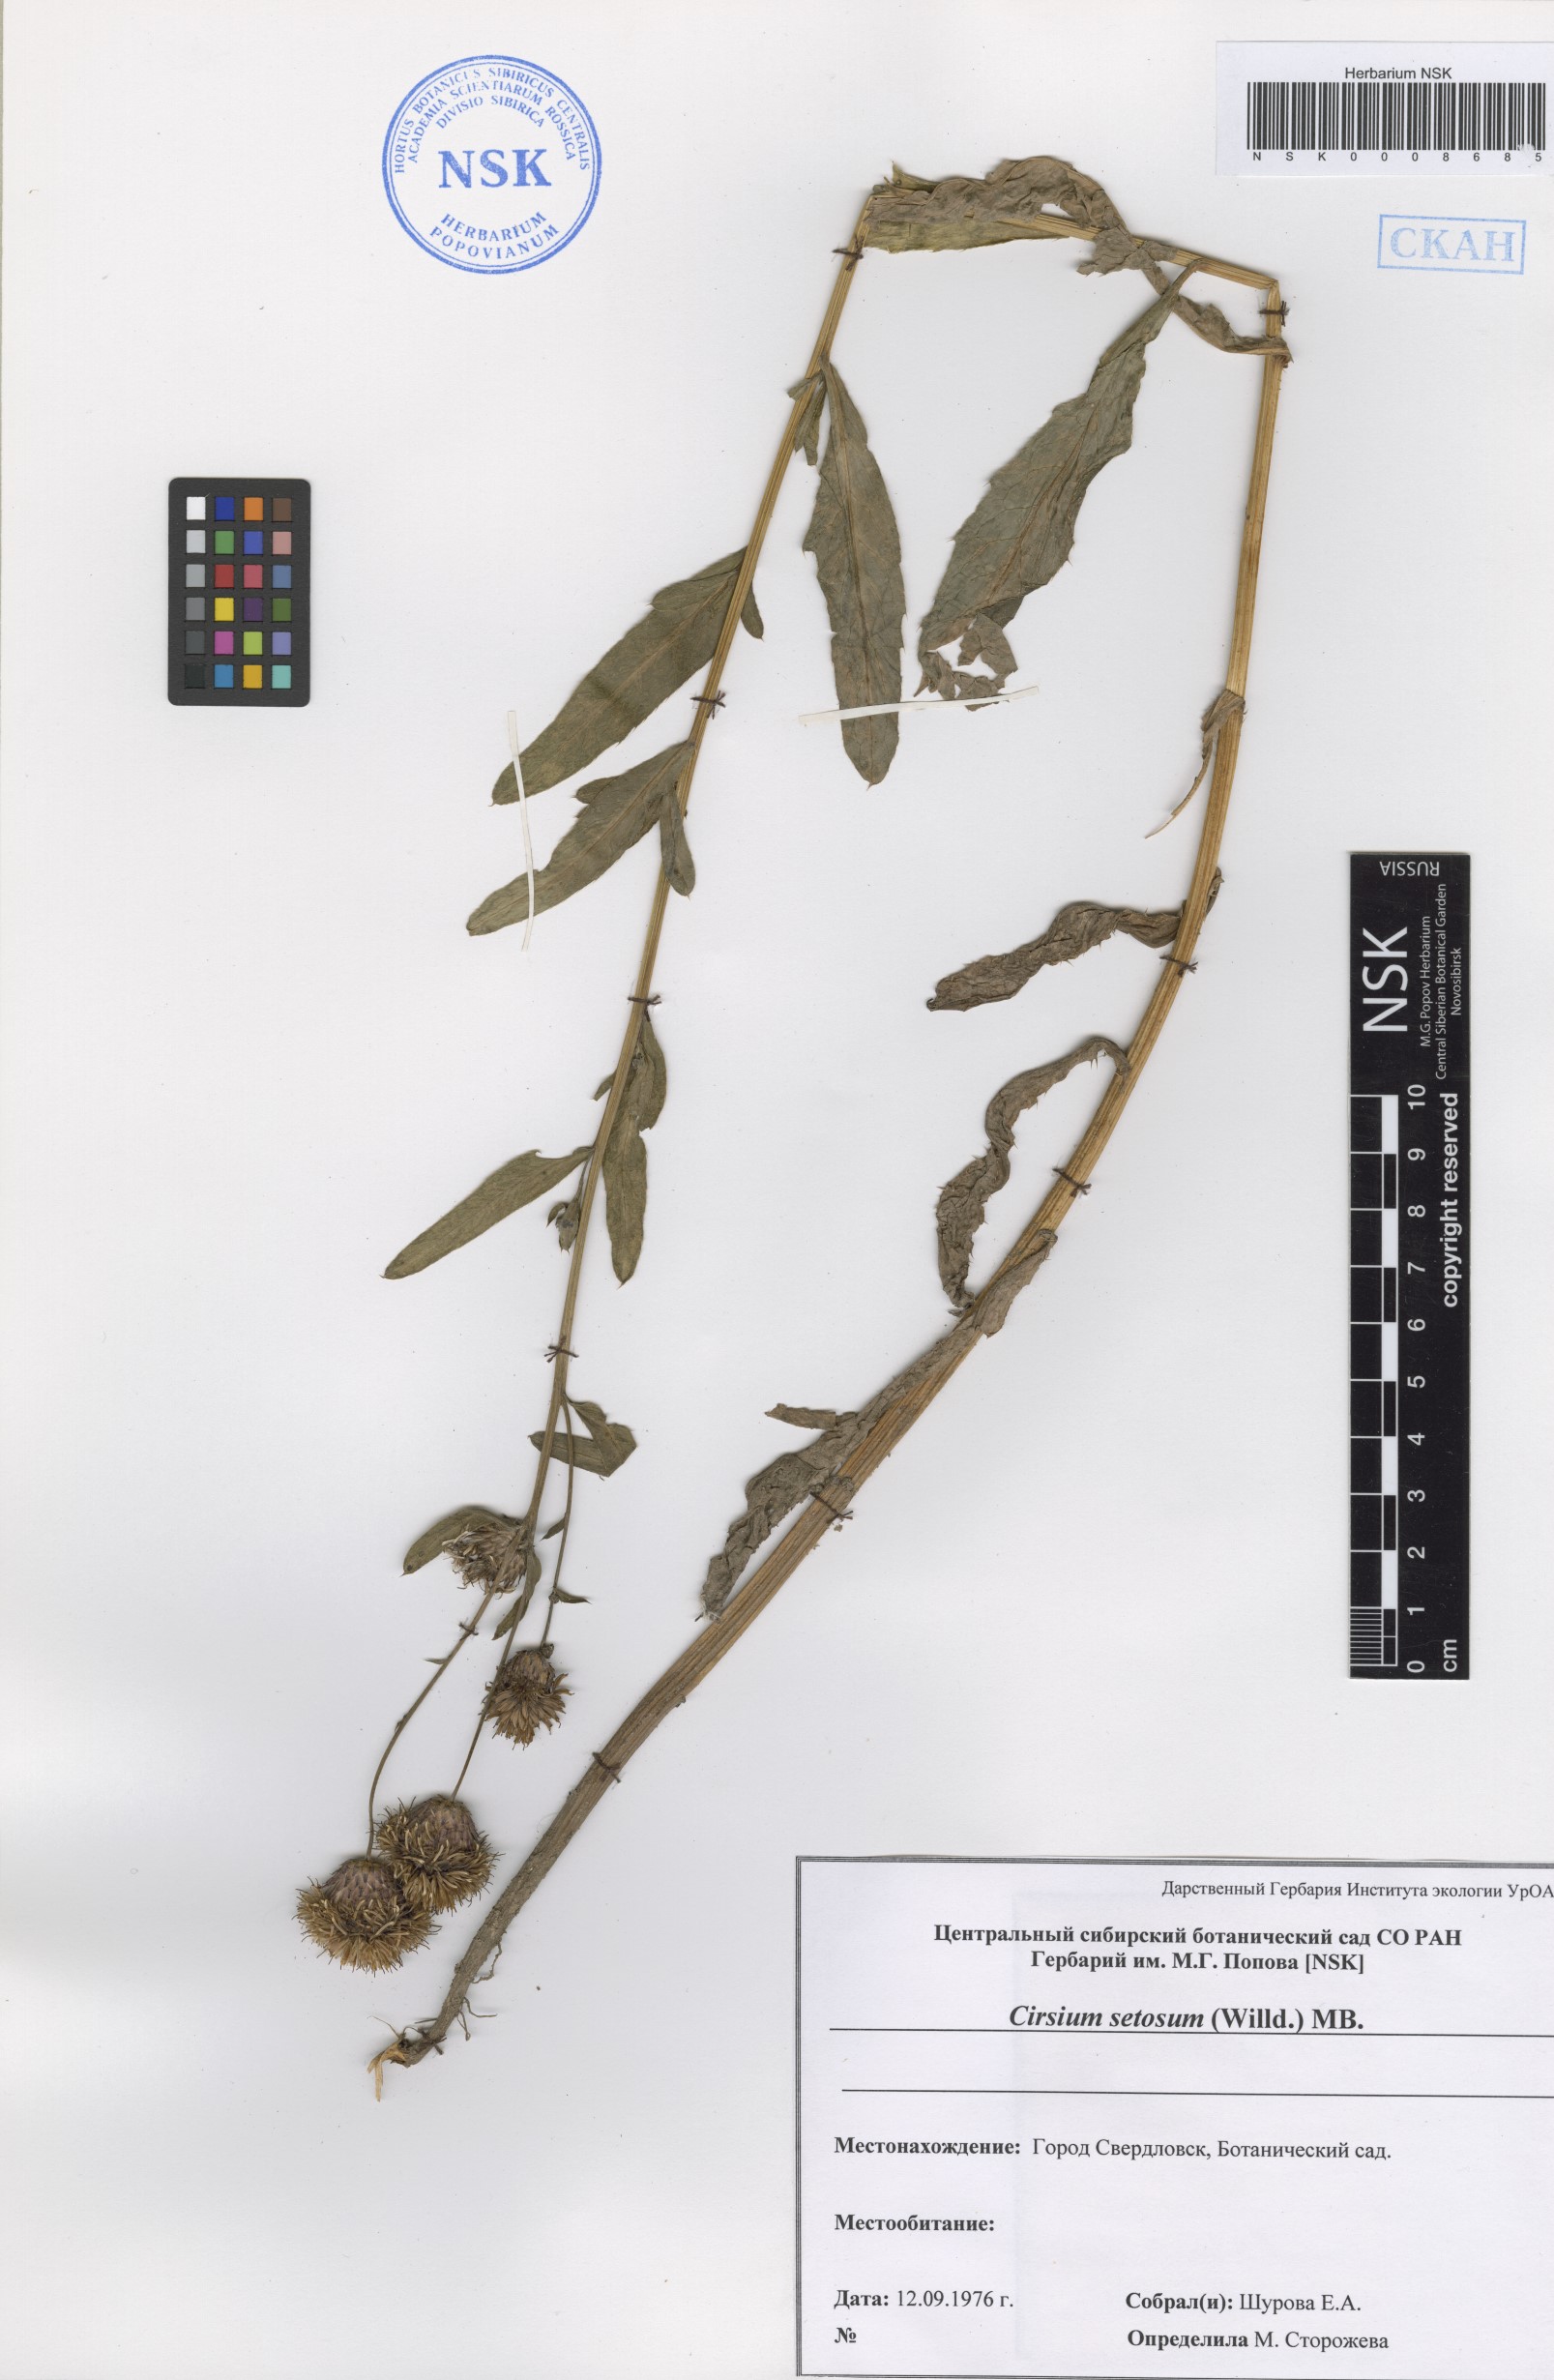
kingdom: Plantae
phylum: Tracheophyta
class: Magnoliopsida
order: Asterales
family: Asteraceae
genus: Cirsium
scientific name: Cirsium arvense
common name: Creeping thistle
